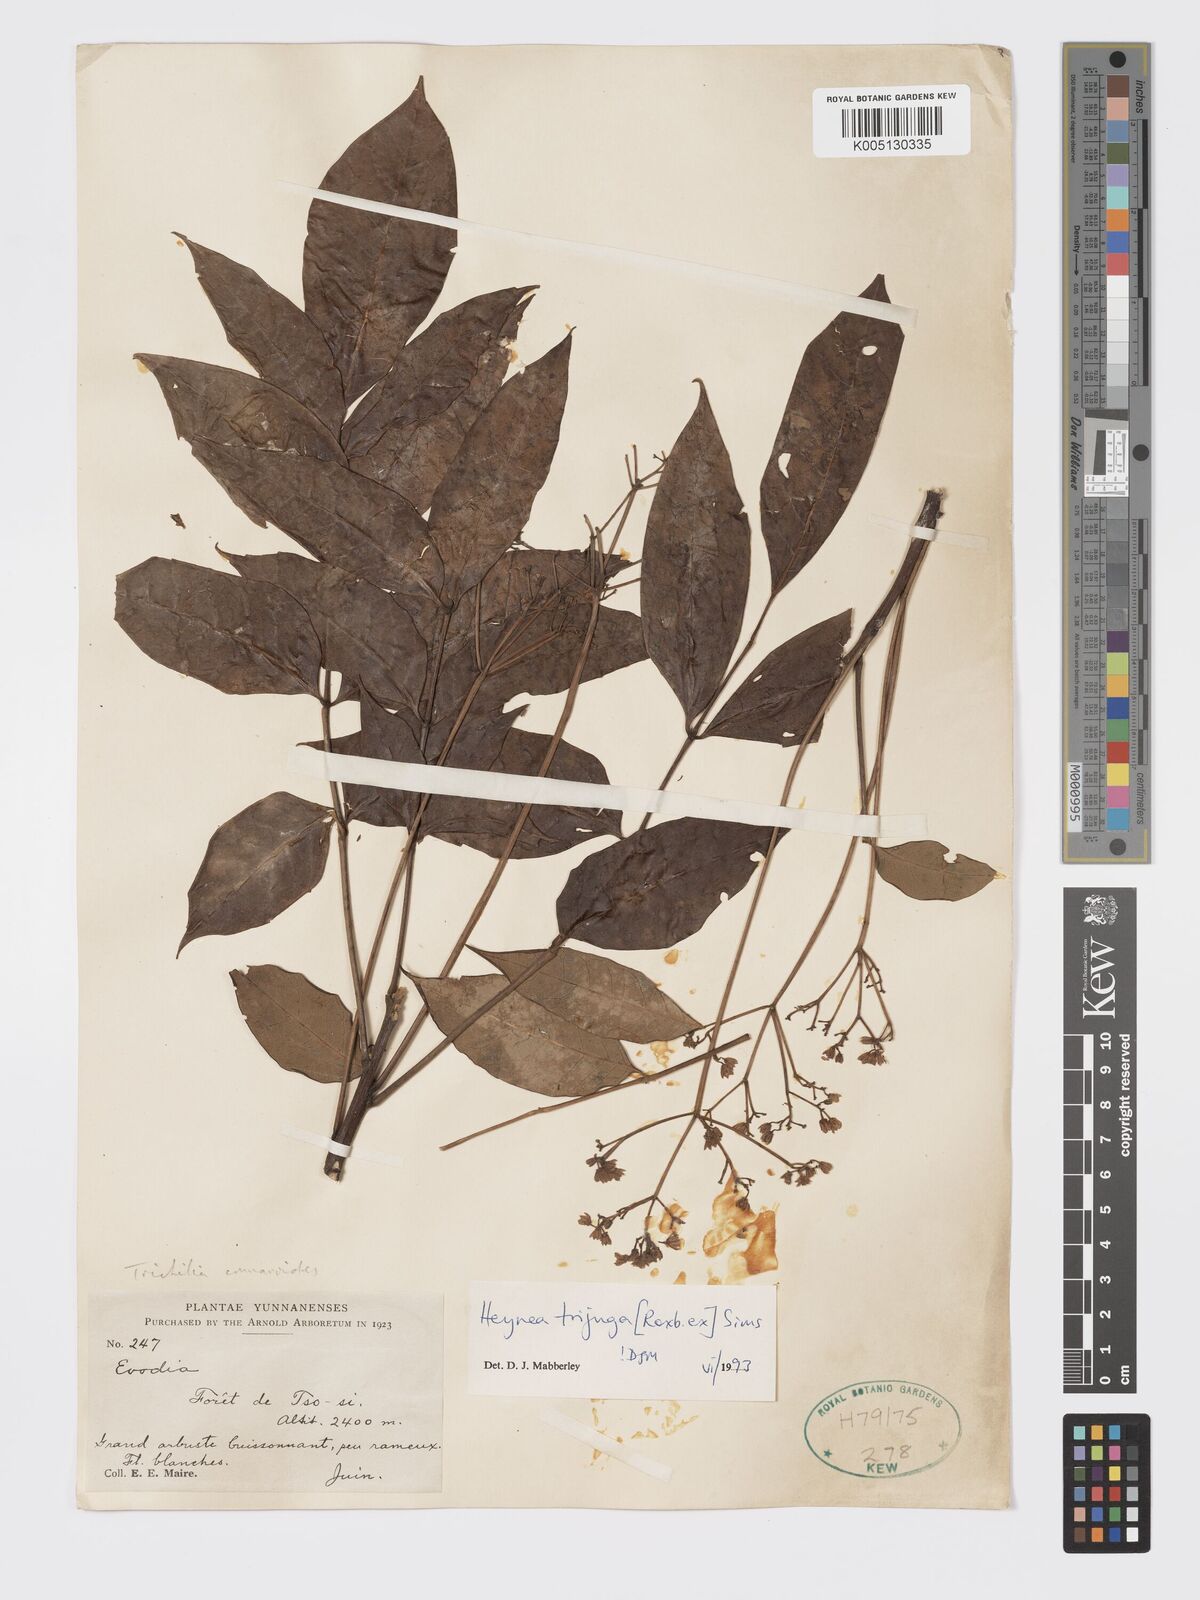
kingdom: Plantae
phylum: Tracheophyta
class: Magnoliopsida
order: Sapindales
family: Meliaceae
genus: Heynea
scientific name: Heynea trijuga
